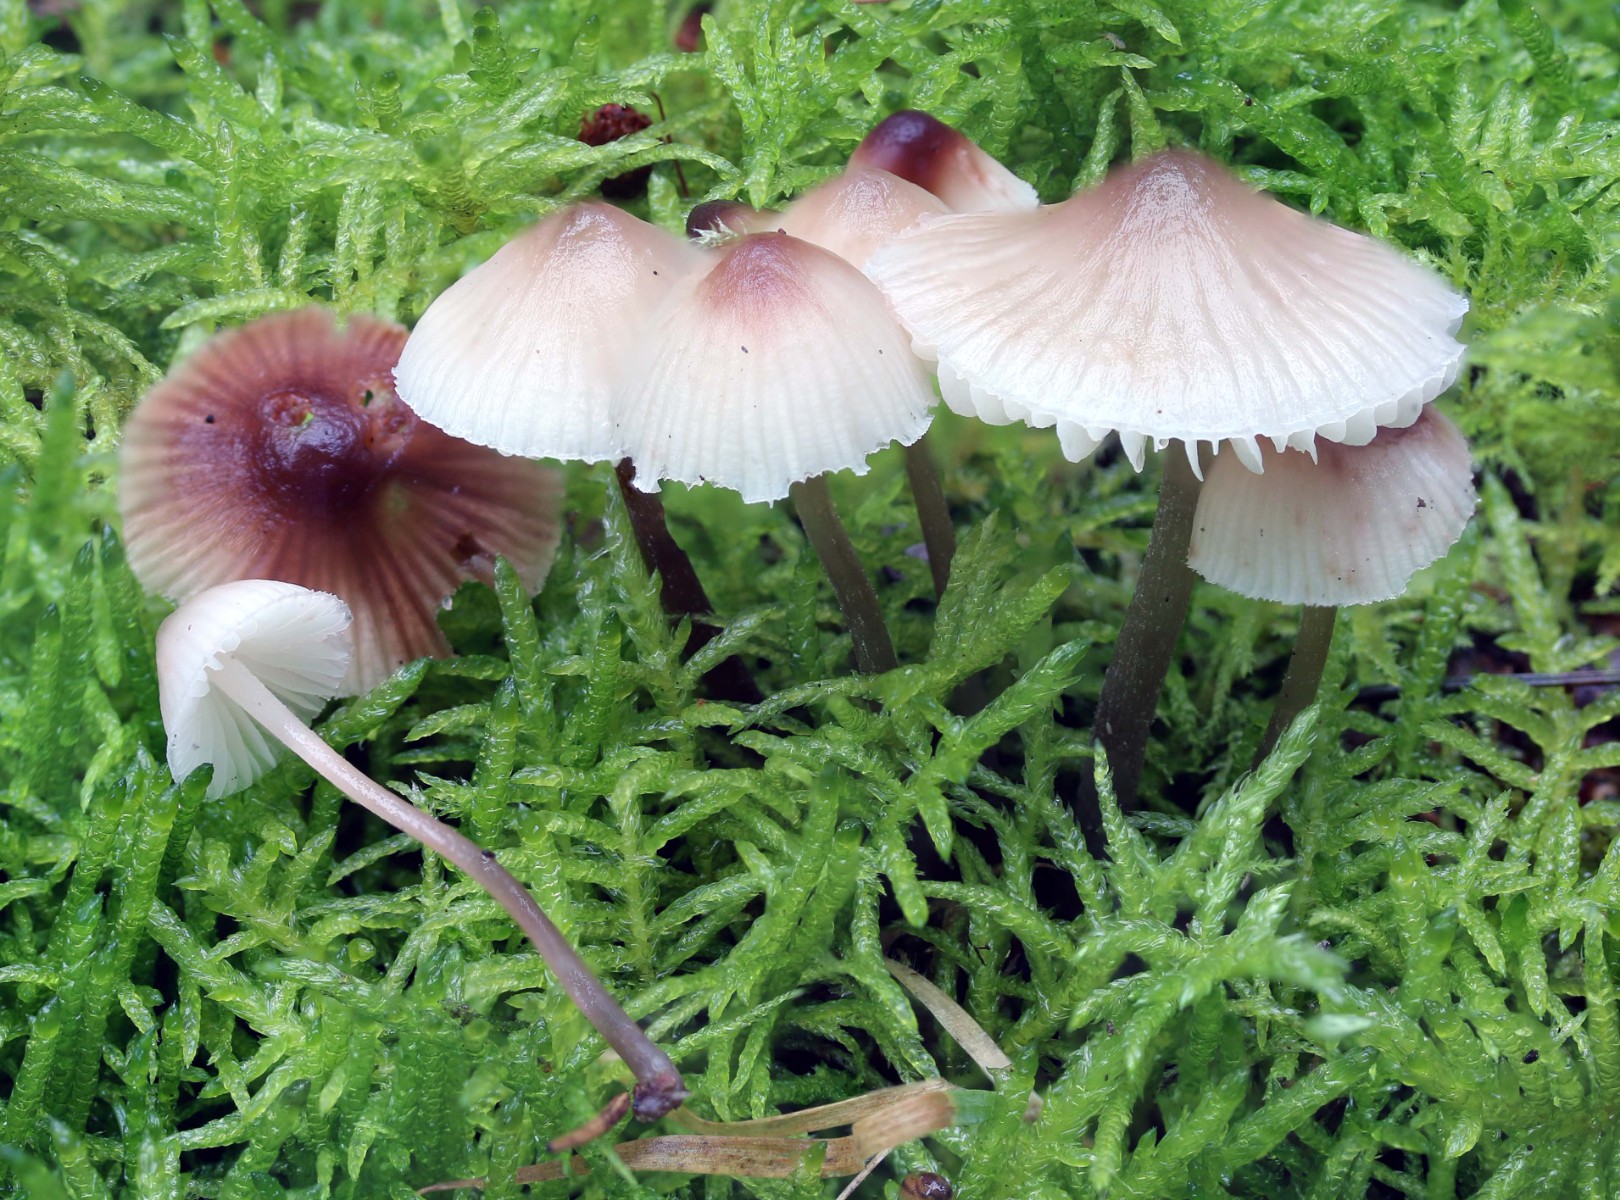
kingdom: Fungi
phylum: Basidiomycota
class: Agaricomycetes
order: Agaricales
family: Mycenaceae
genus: Mycena
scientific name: Mycena zephirus
